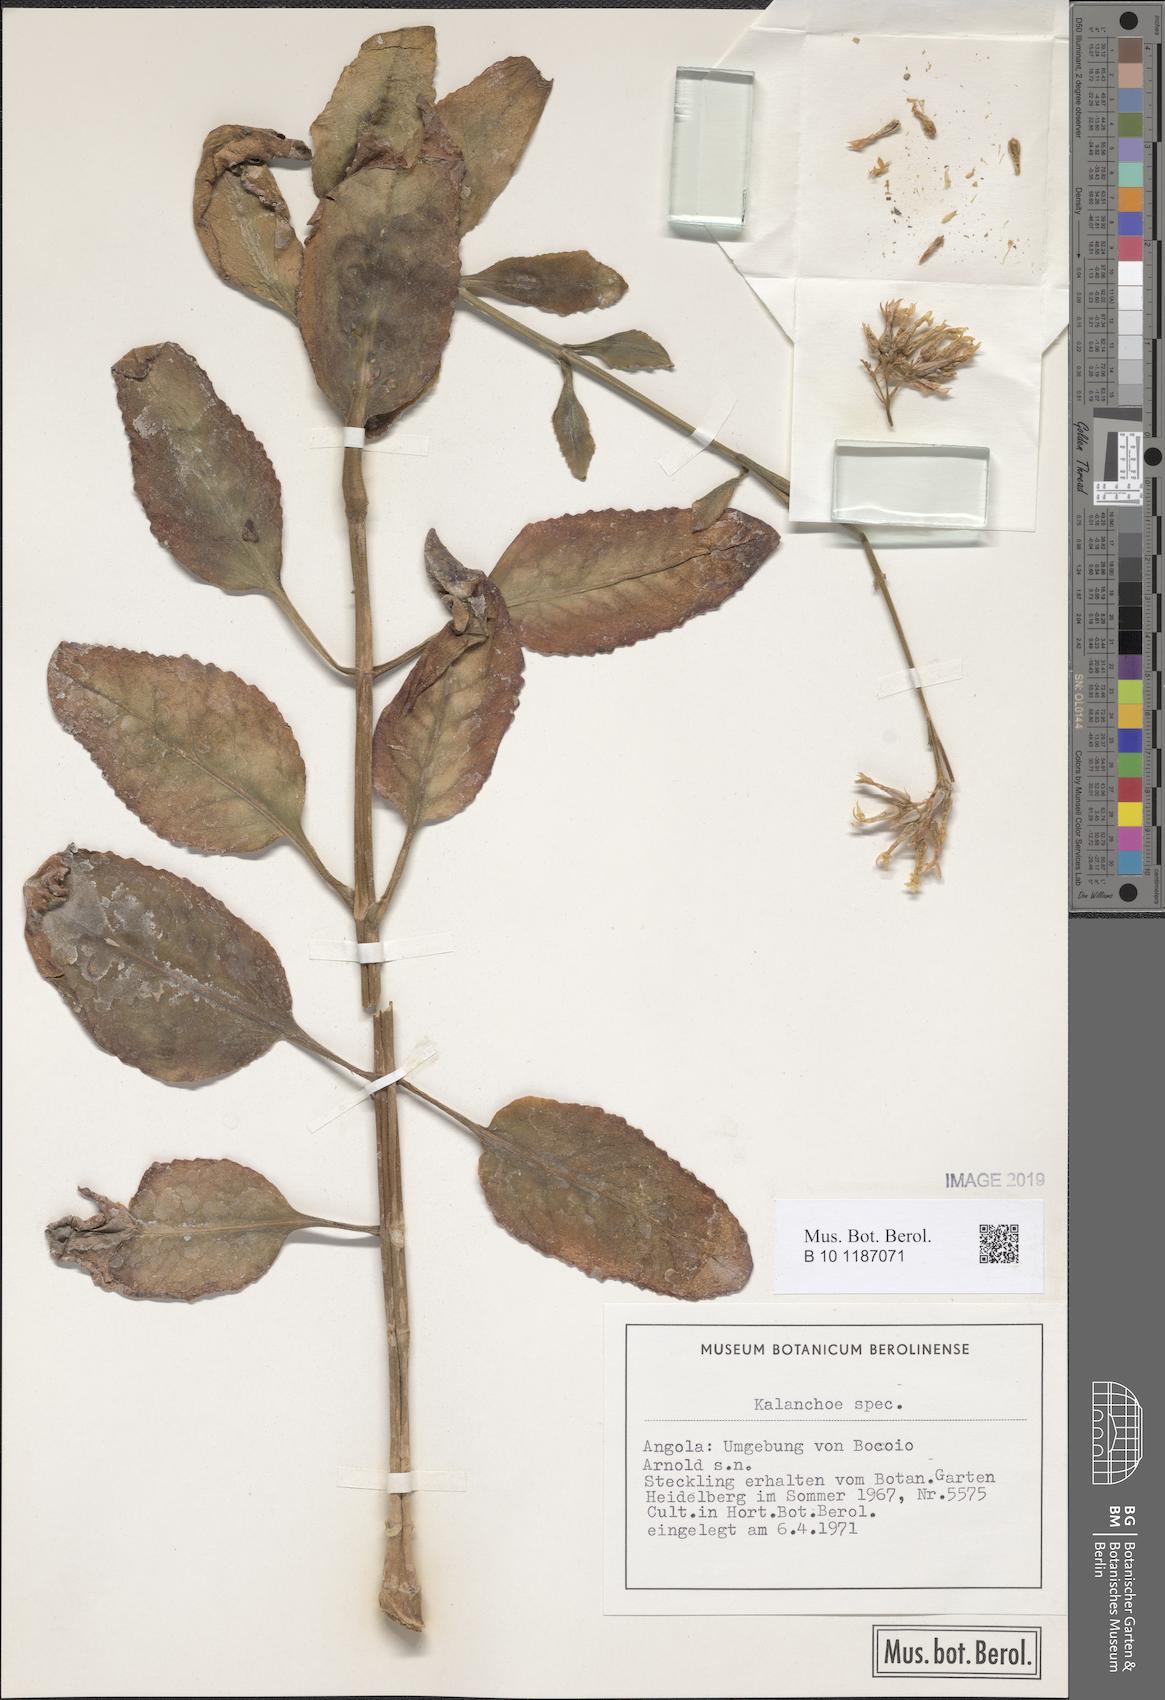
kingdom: Plantae
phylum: Tracheophyta
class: Magnoliopsida
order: Saxifragales
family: Crassulaceae
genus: Kalanchoe
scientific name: Kalanchoe
